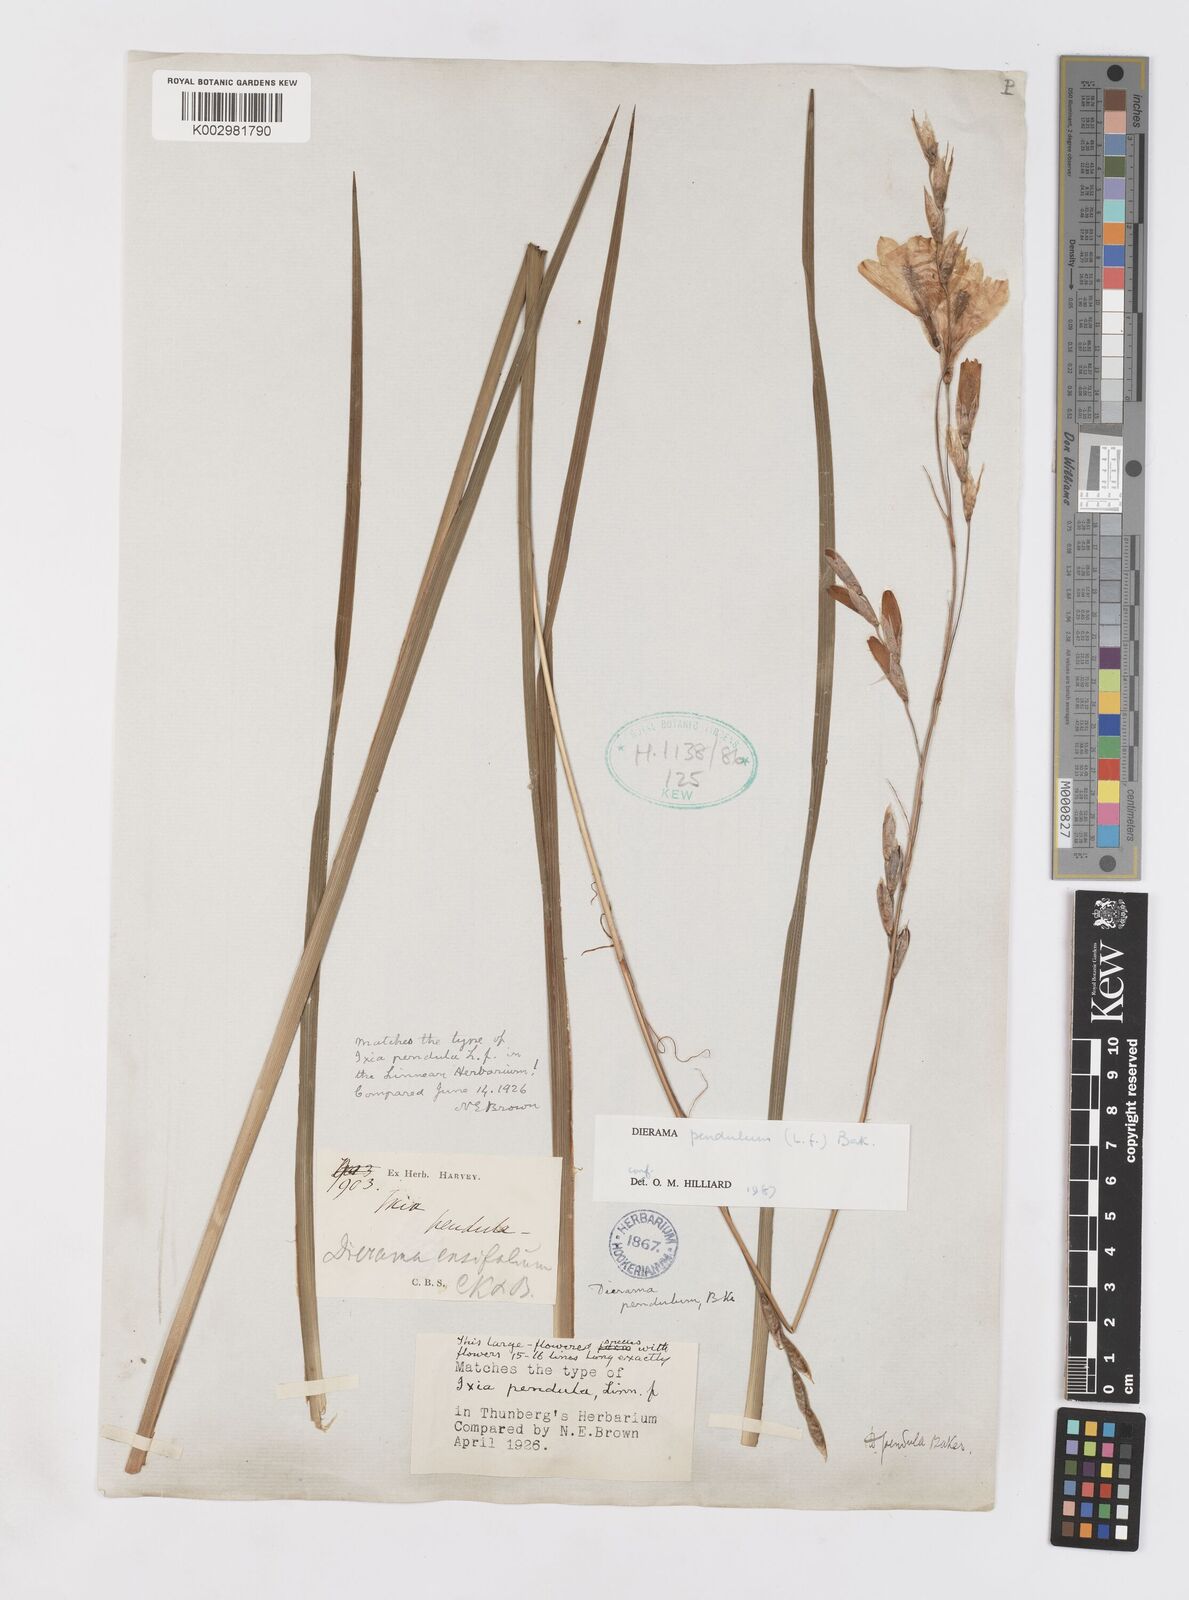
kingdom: Plantae
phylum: Tracheophyta
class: Liliopsida
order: Asparagales
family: Iridaceae
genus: Dierama
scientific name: Dierama pendulum
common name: Grassy-bell
